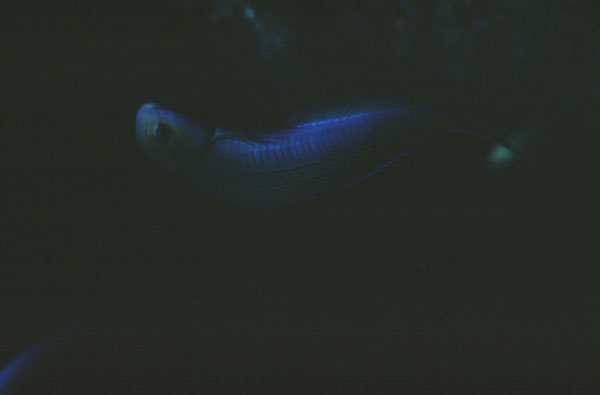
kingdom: Animalia
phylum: Chordata
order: Perciformes
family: Blenniidae
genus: Ecsenius
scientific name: Ecsenius midas
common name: Golden blenny
